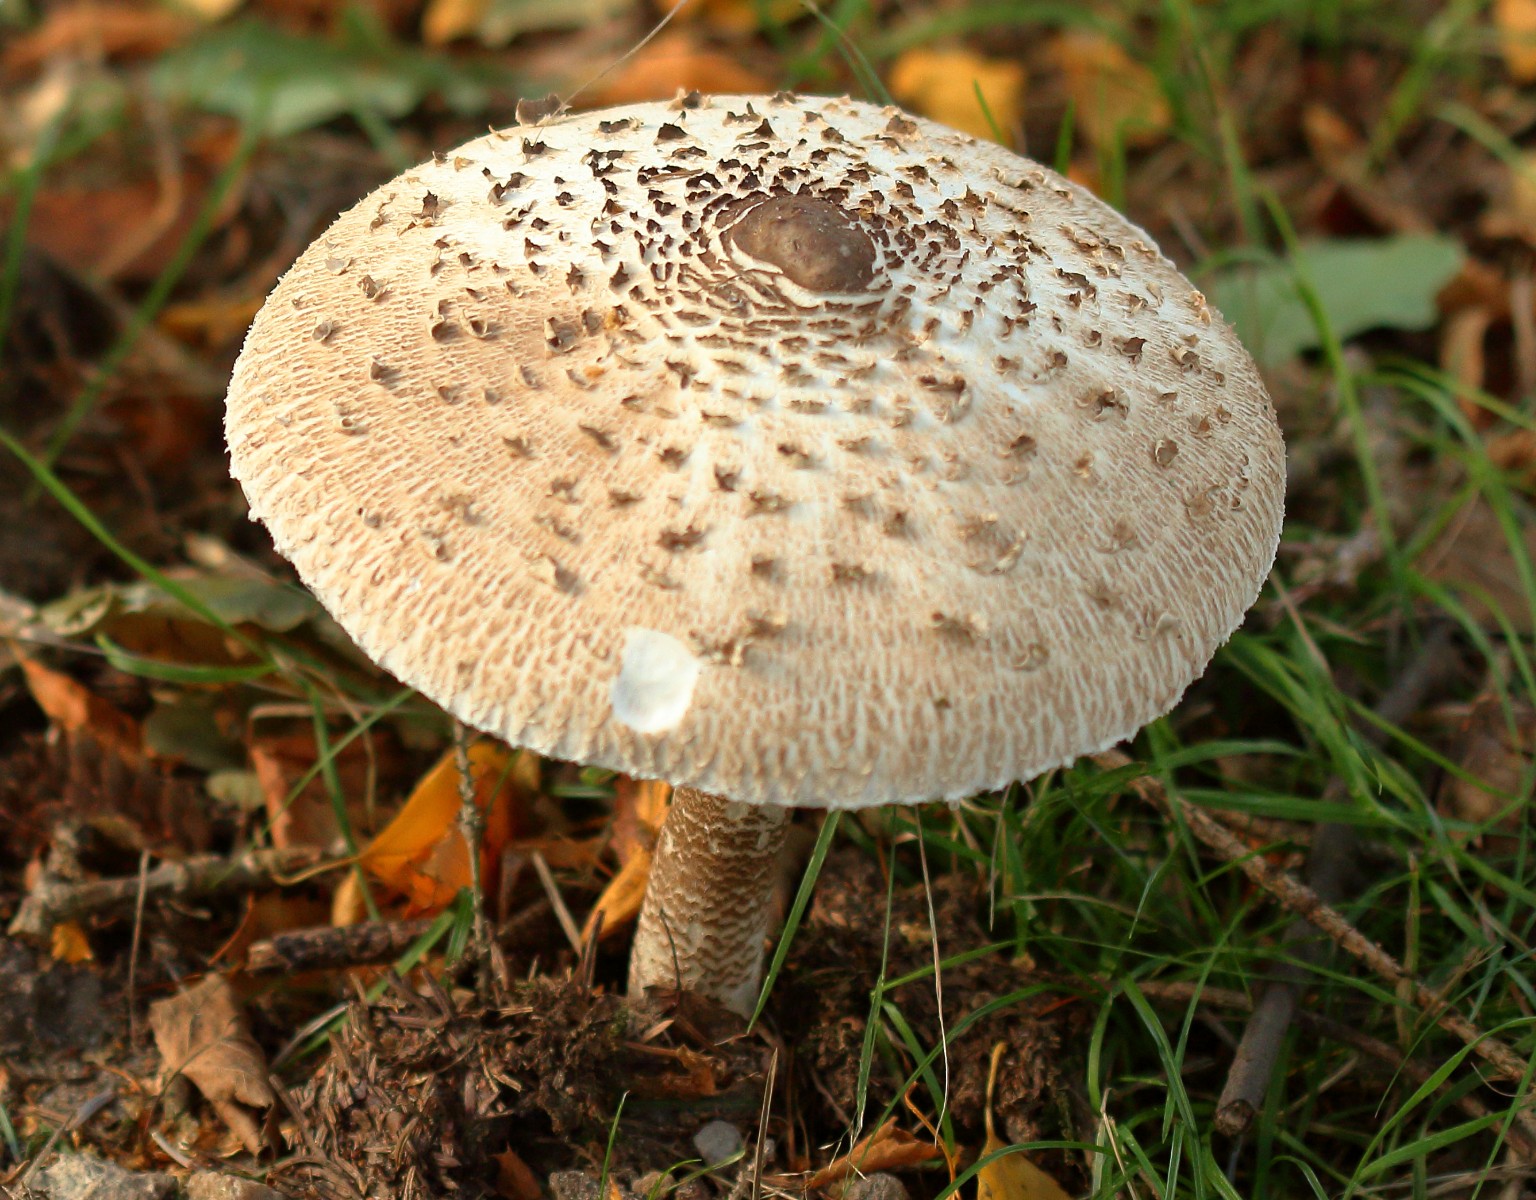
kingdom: Fungi
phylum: Basidiomycota
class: Agaricomycetes
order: Agaricales
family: Agaricaceae
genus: Macrolepiota
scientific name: Macrolepiota procera
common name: stor kæmpeparasolhat
